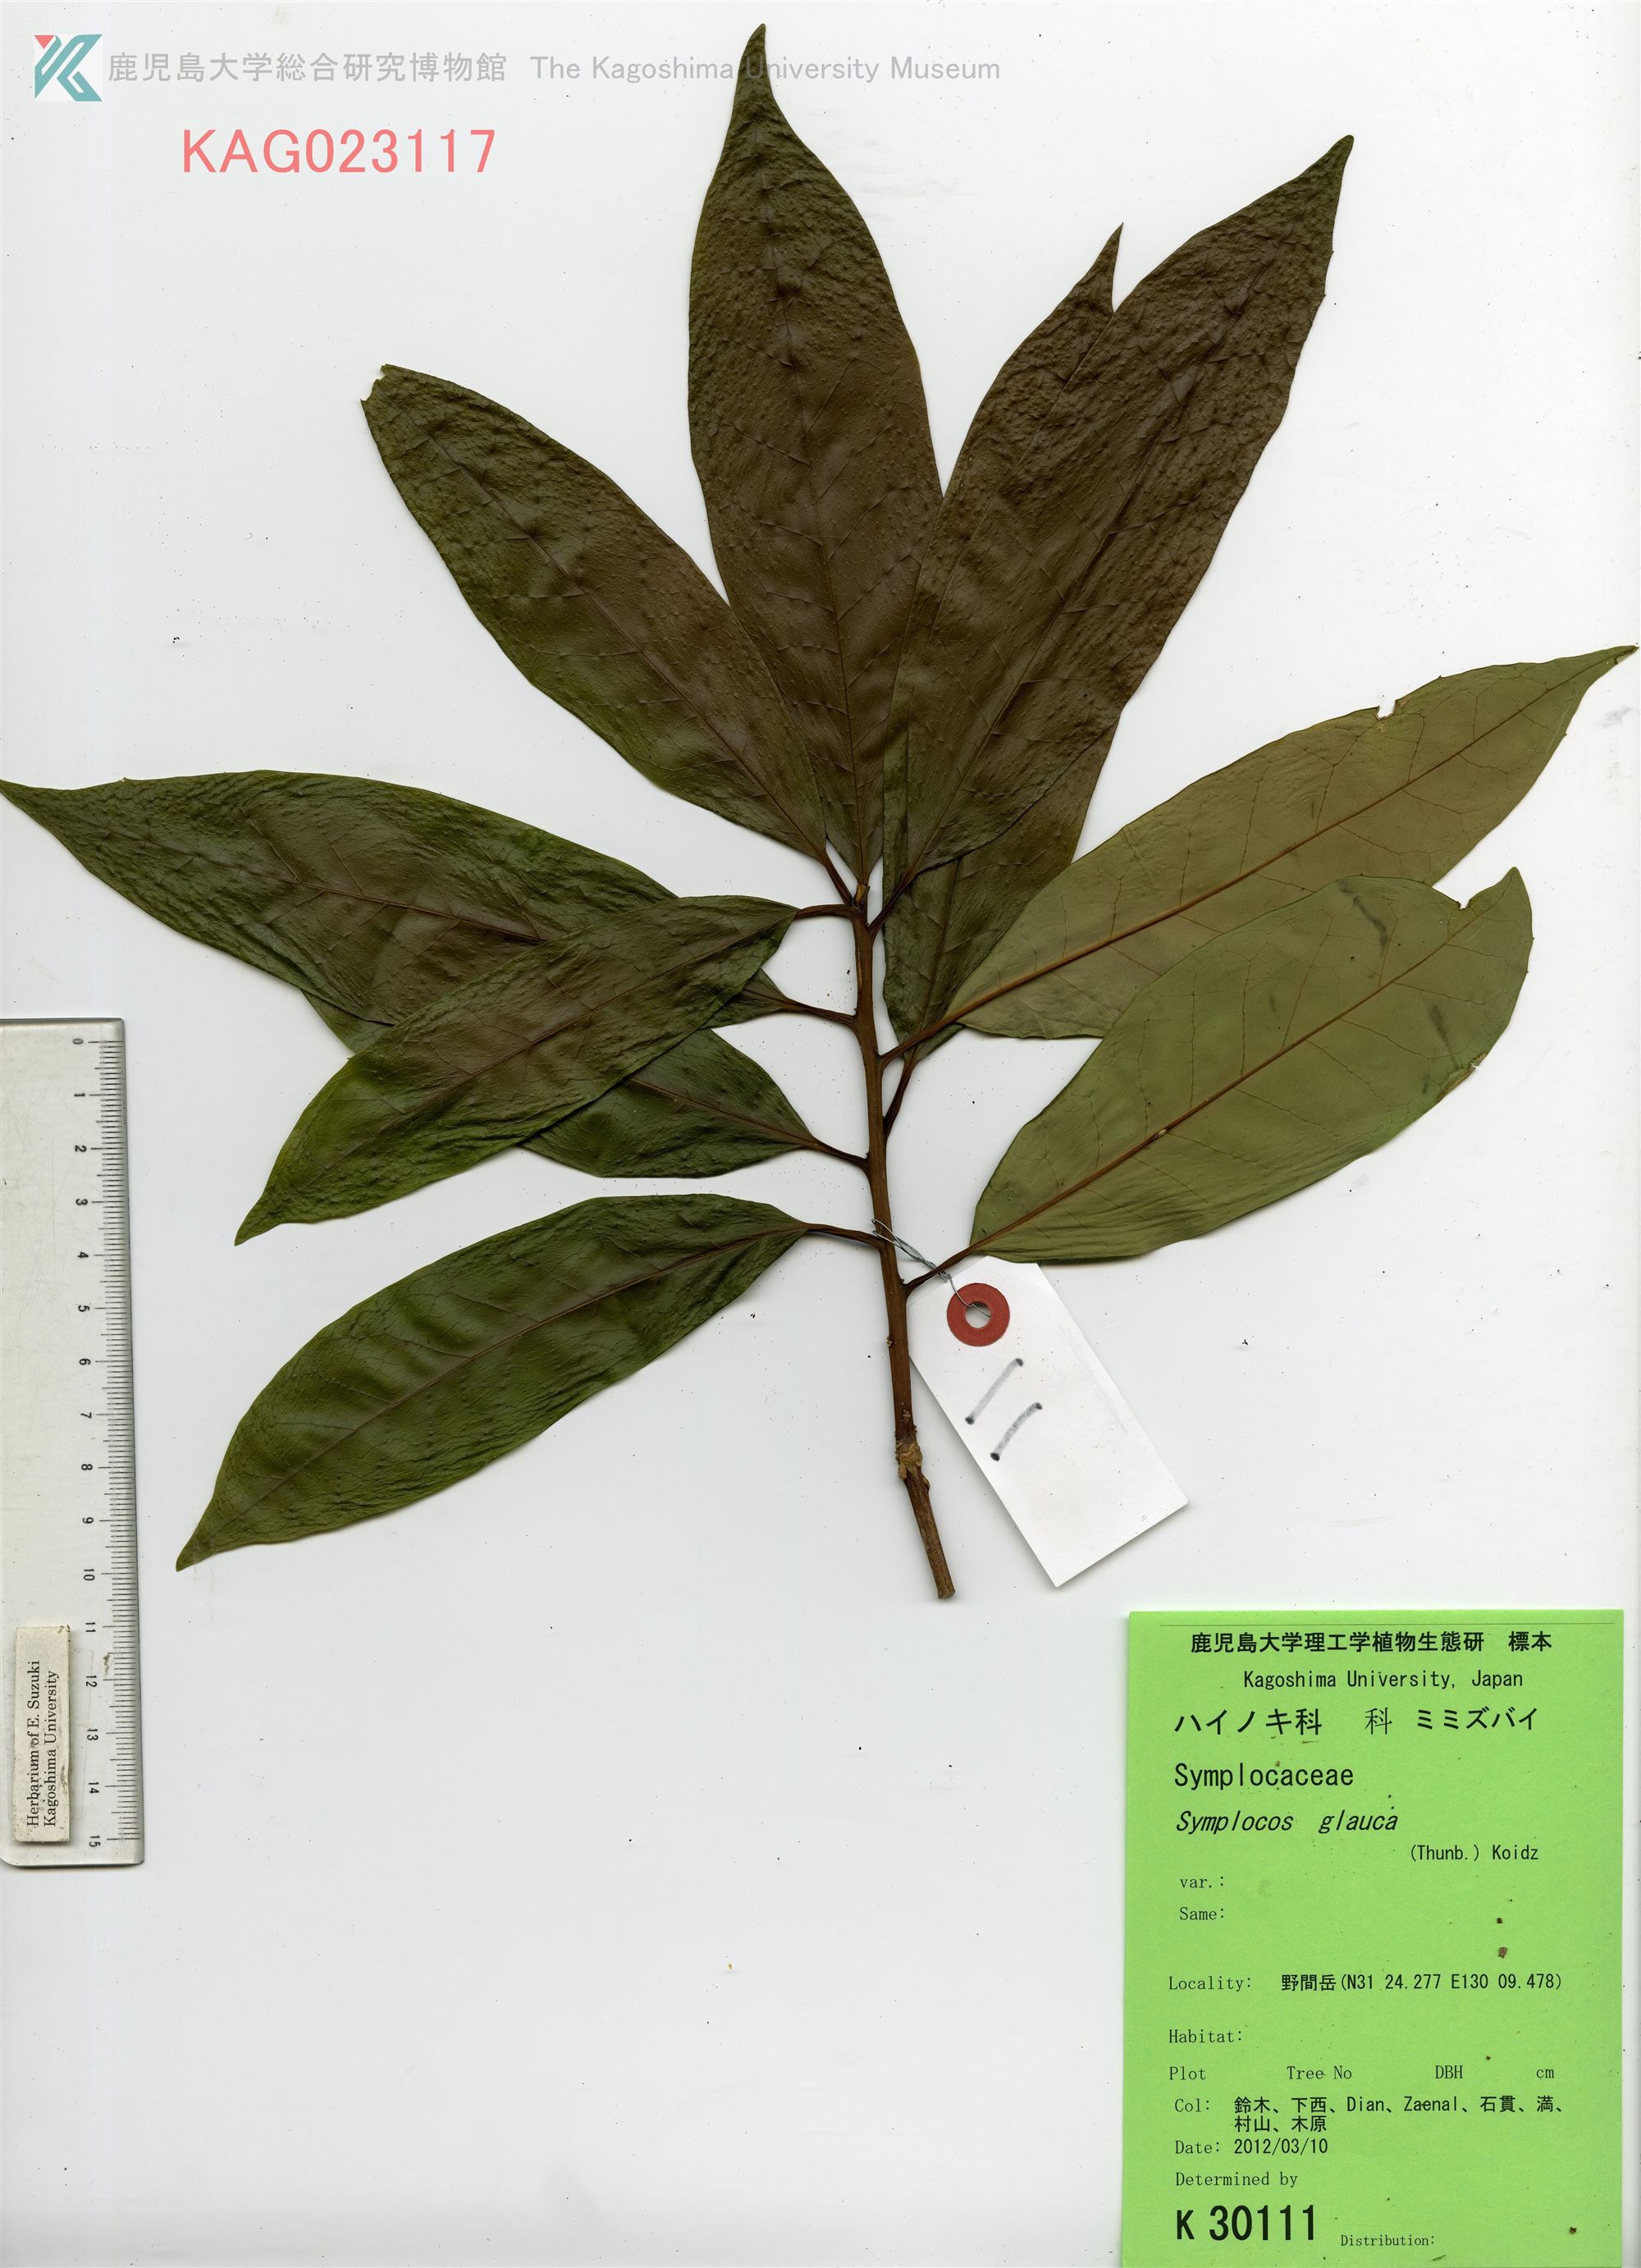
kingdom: Plantae
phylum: Tracheophyta
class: Magnoliopsida
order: Ericales
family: Symplocaceae
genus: Symplocos
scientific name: Symplocos glauca
